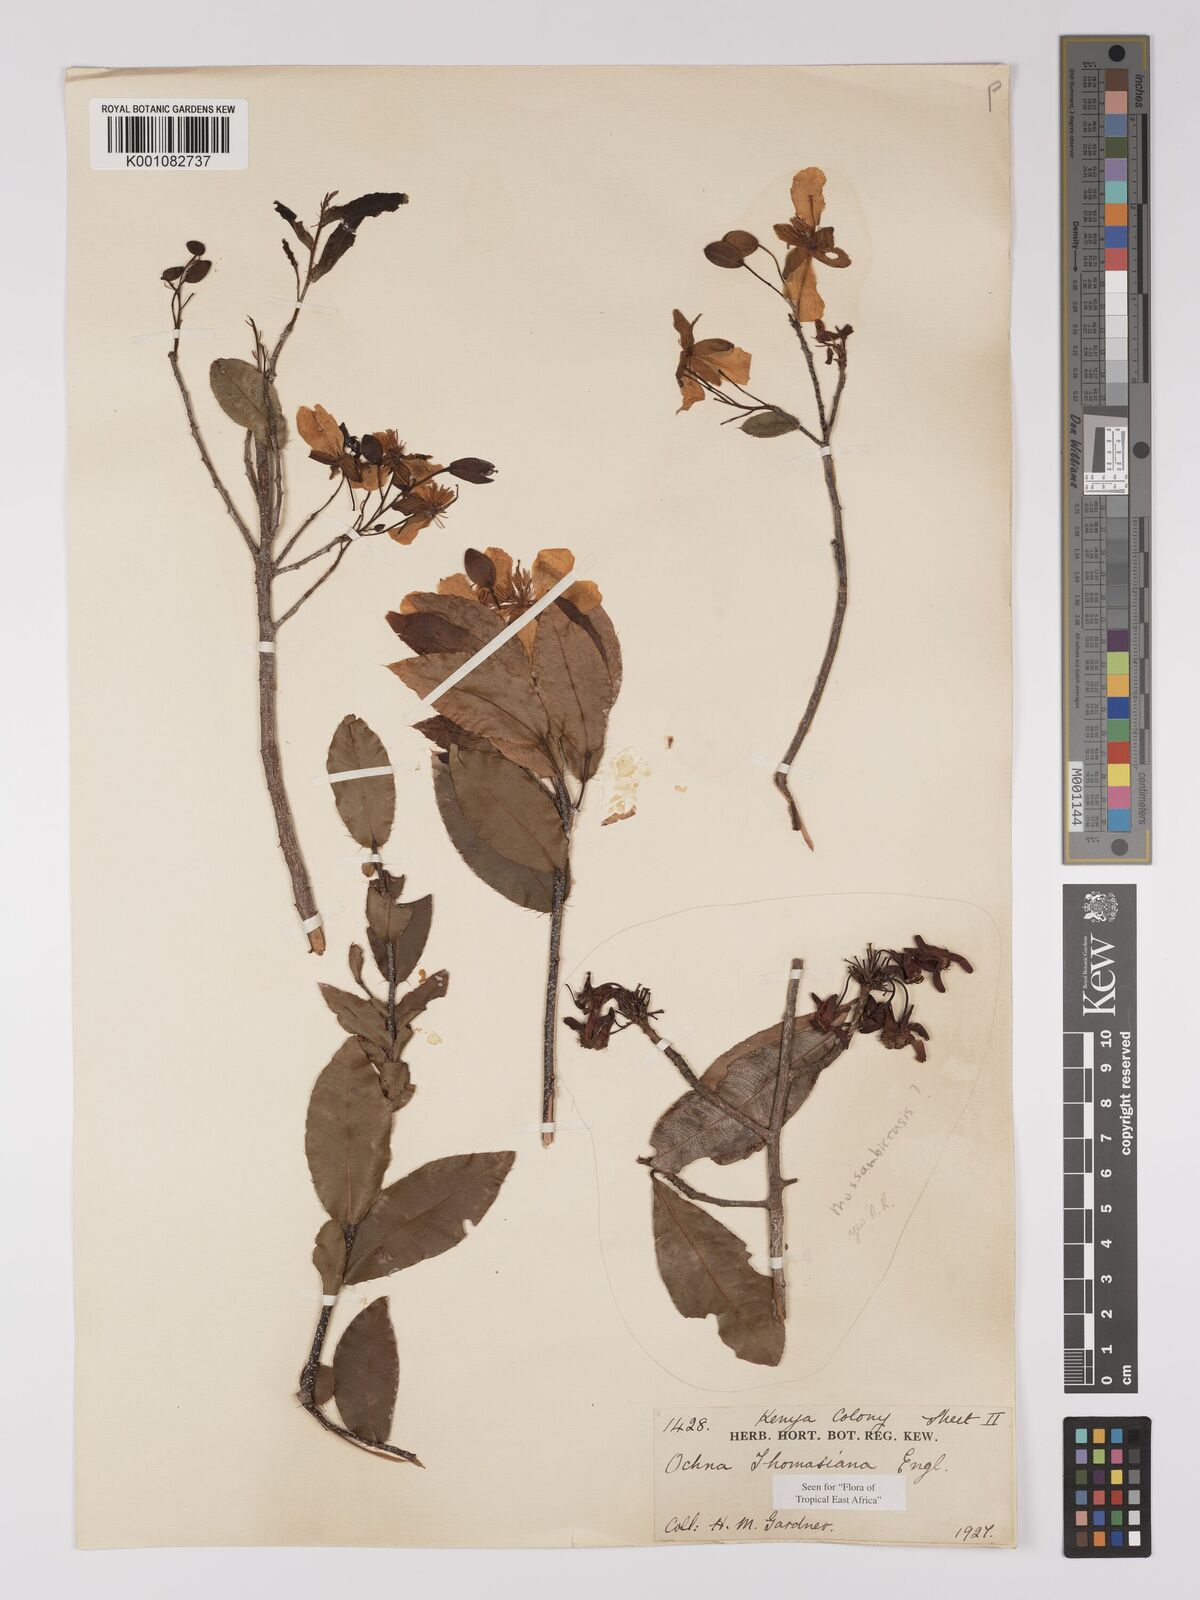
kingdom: Plantae
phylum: Tracheophyta
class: Magnoliopsida
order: Malpighiales
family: Ochnaceae
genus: Ochna
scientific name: Ochna thomasiana
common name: Thomas' bird's-eye bush
